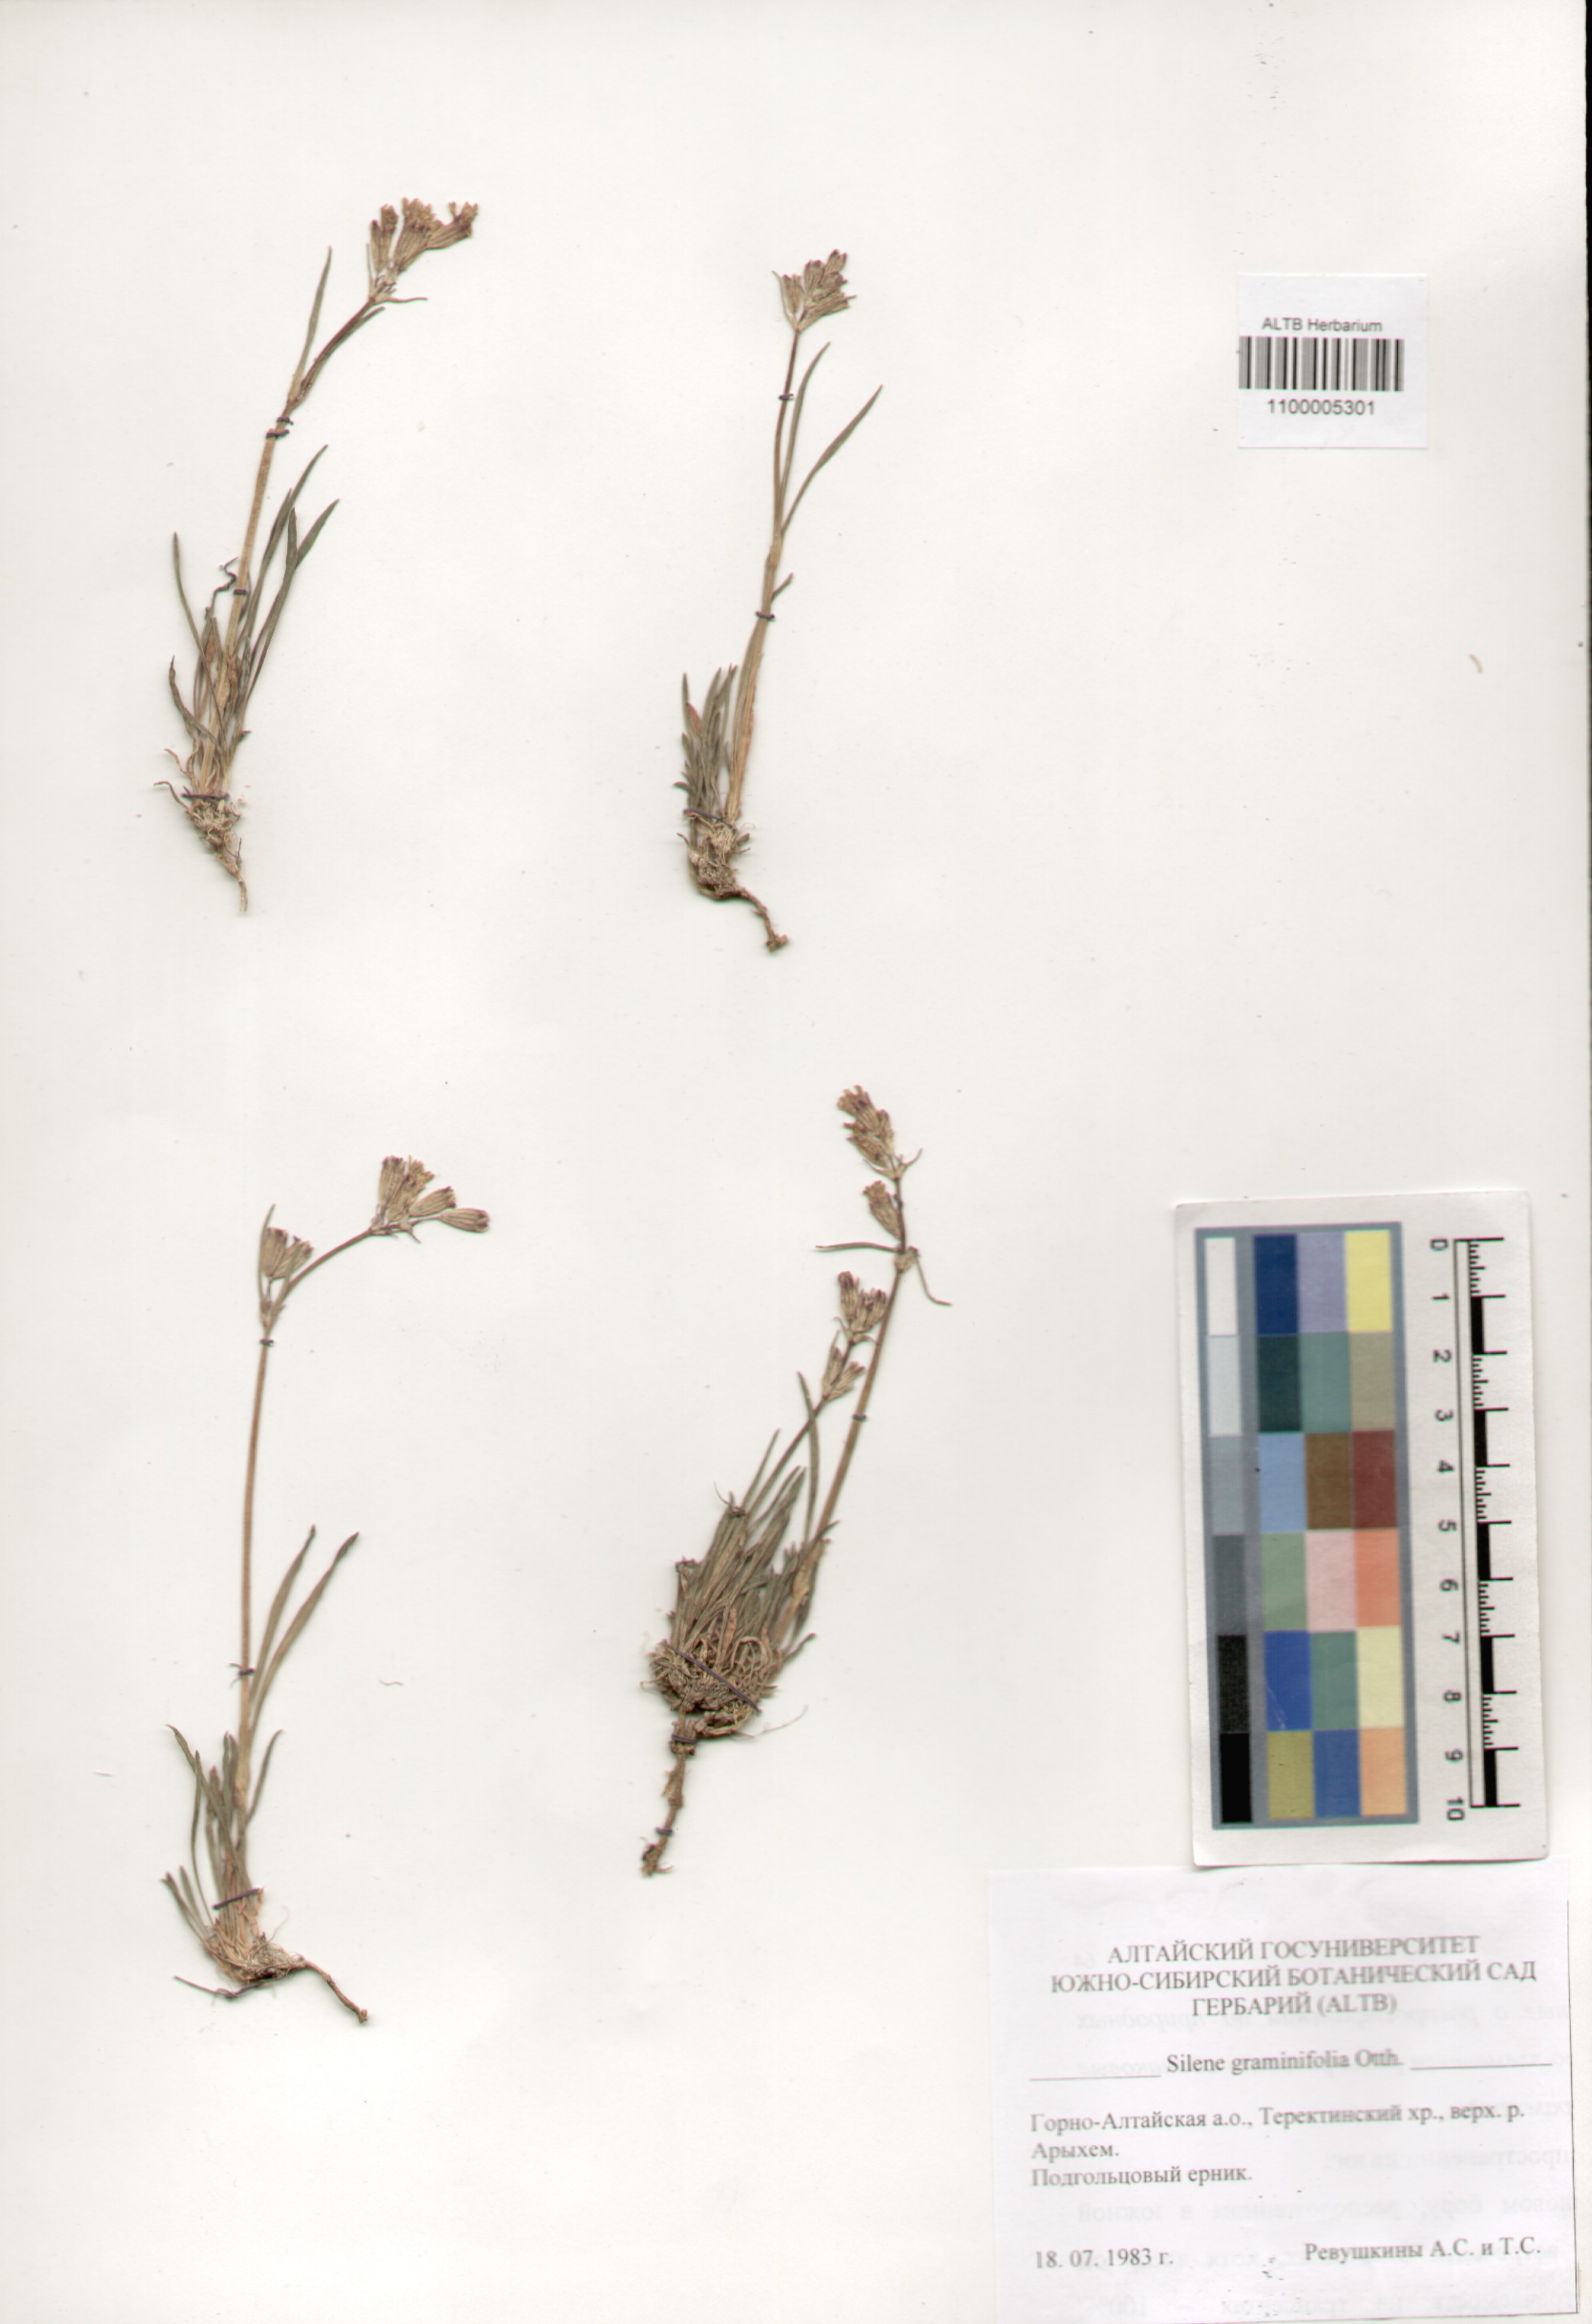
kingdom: Plantae
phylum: Tracheophyta
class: Magnoliopsida
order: Caryophyllales
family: Caryophyllaceae
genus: Silene
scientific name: Silene graminifolia
